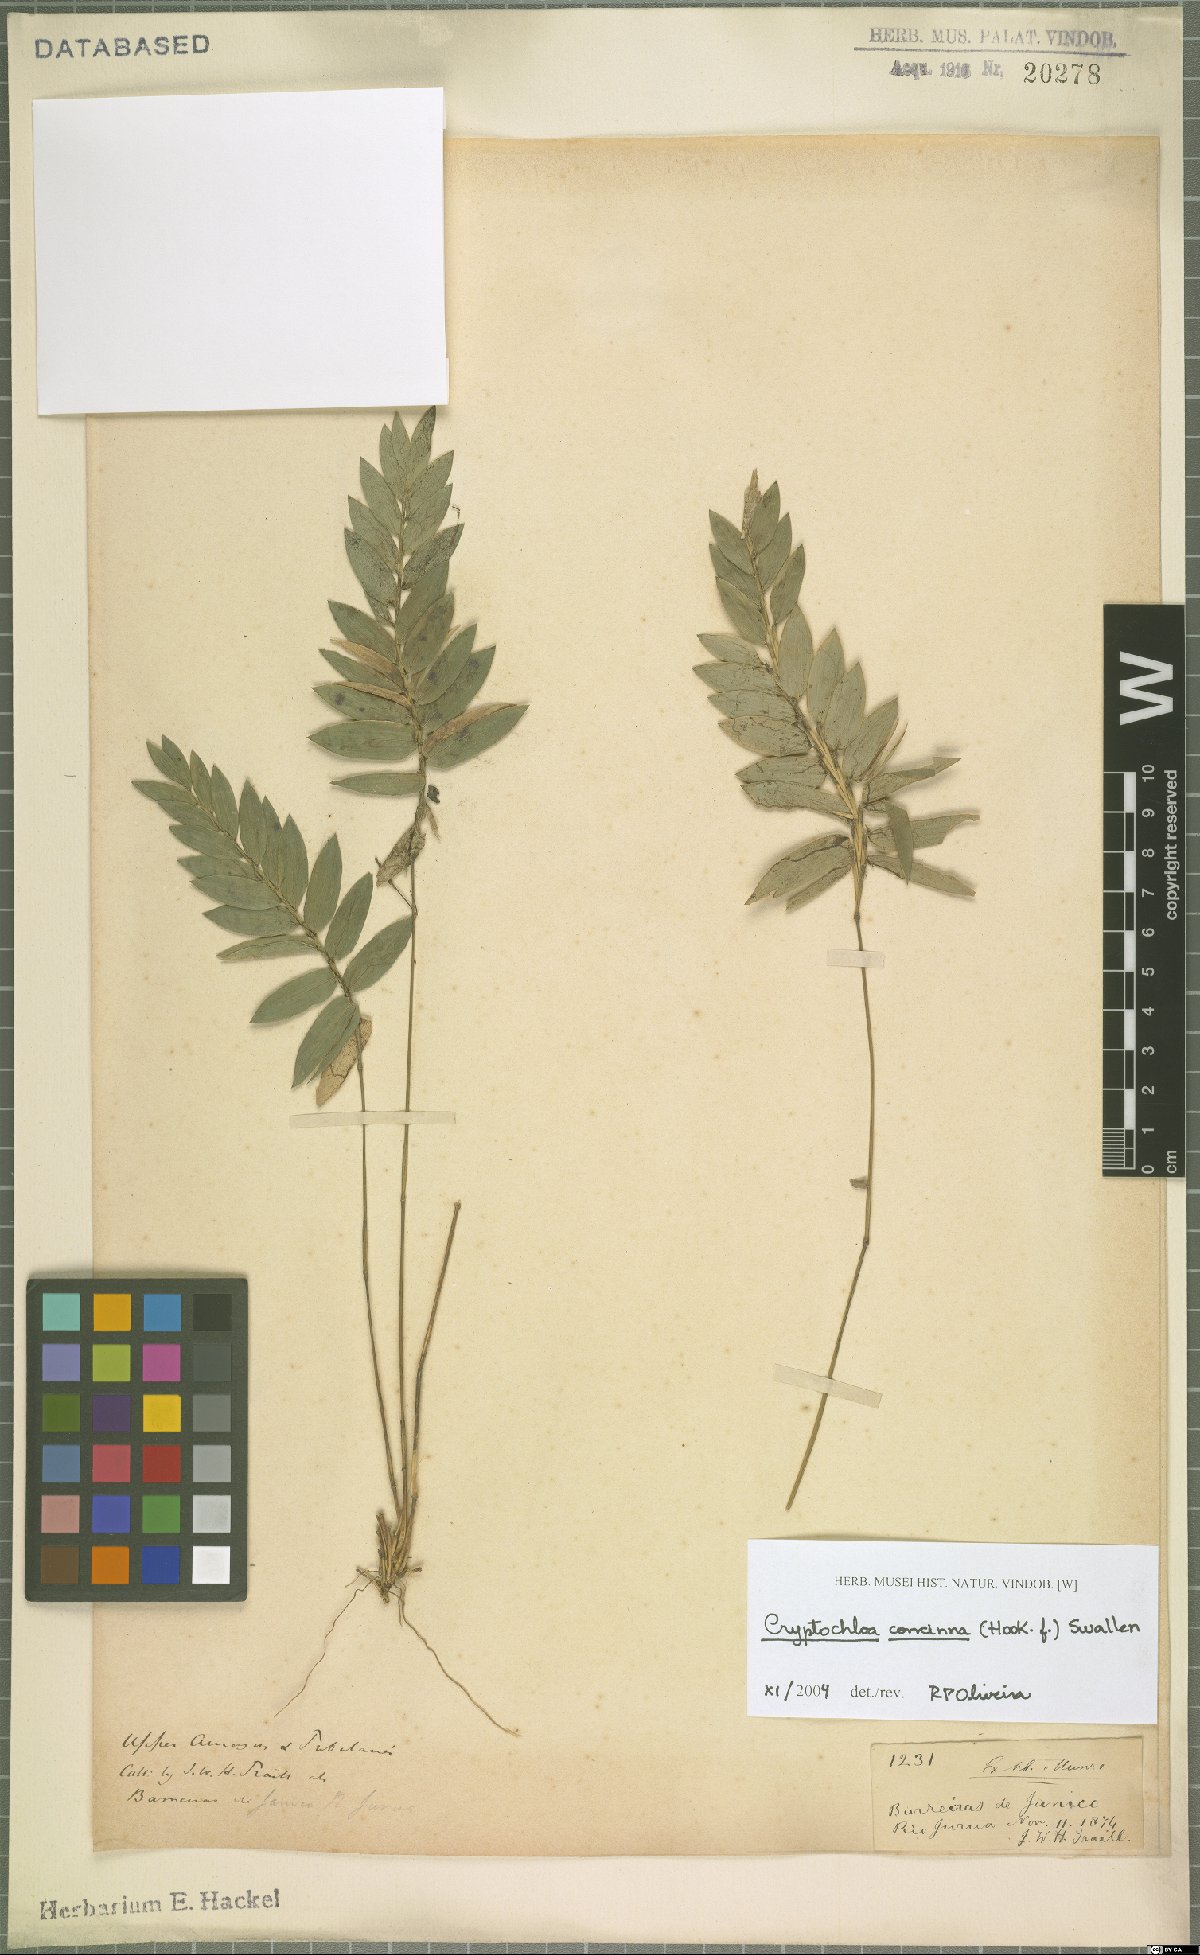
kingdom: Plantae
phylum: Tracheophyta
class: Liliopsida
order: Poales
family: Poaceae
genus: Cryptochloa
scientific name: Cryptochloa concinna
